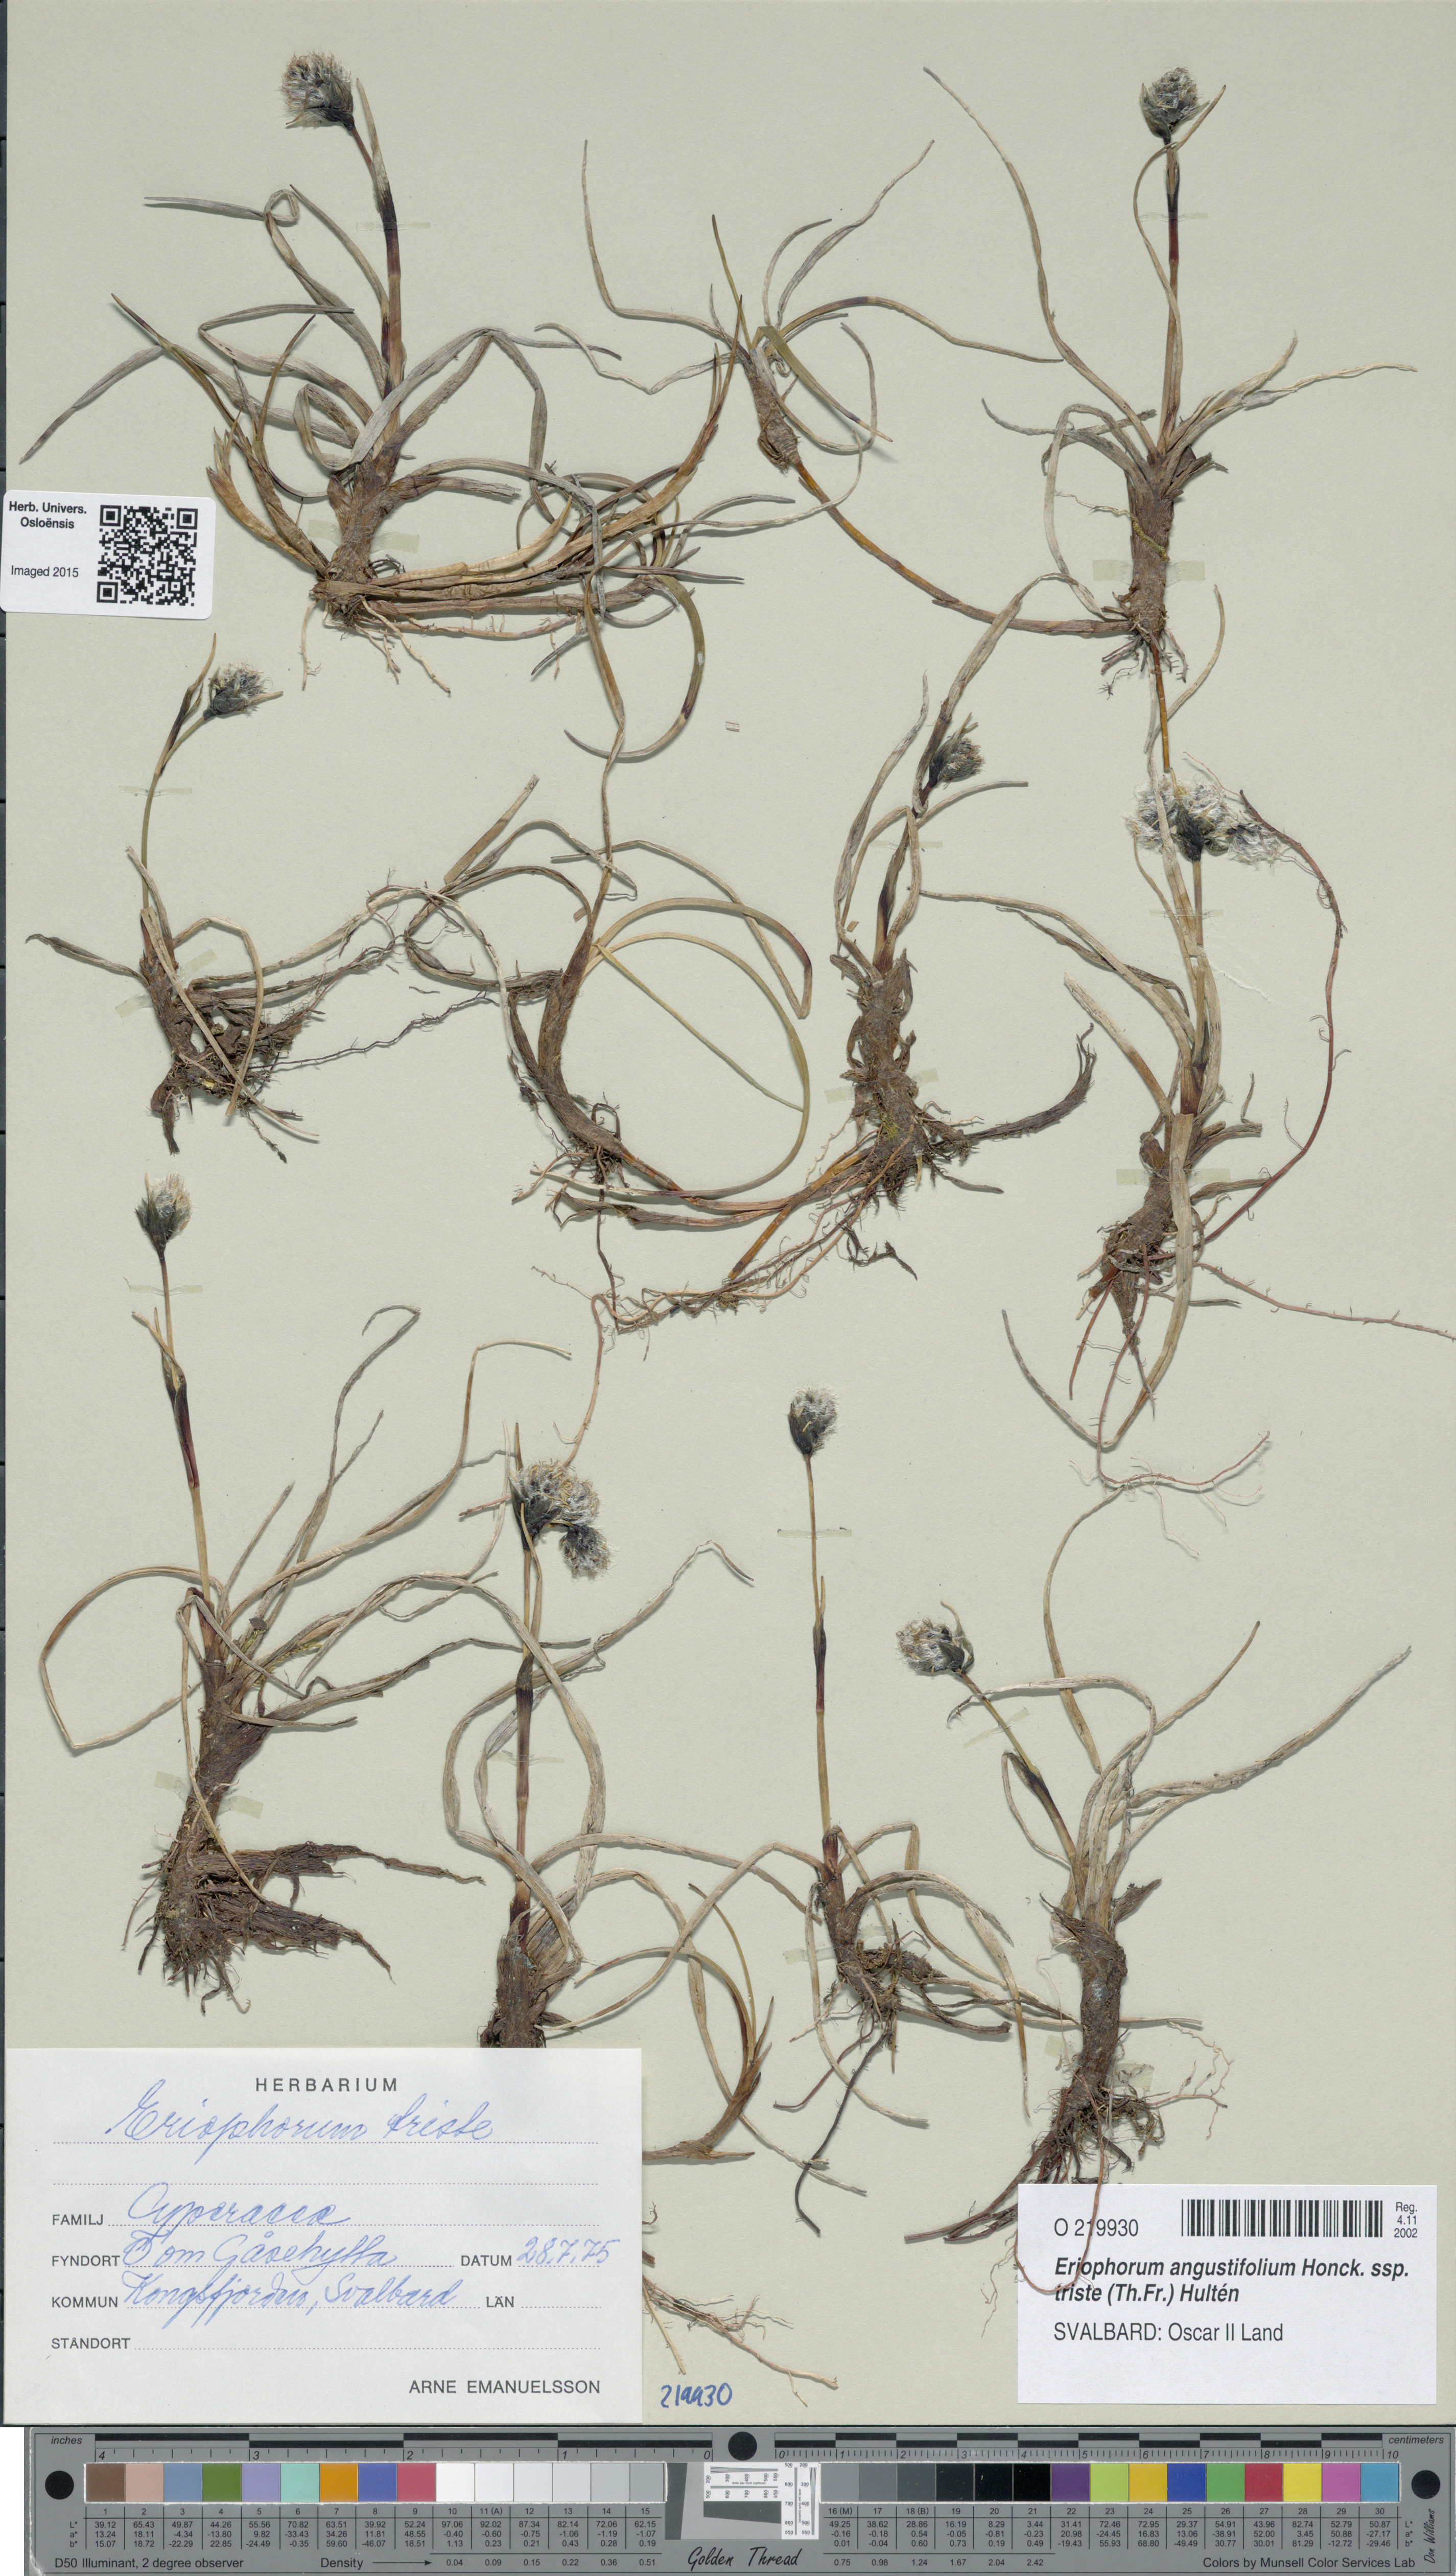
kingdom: Plantae
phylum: Tracheophyta
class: Liliopsida
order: Poales
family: Cyperaceae
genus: Eriophorum
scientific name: Eriophorum triste
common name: Tall cottongrass
